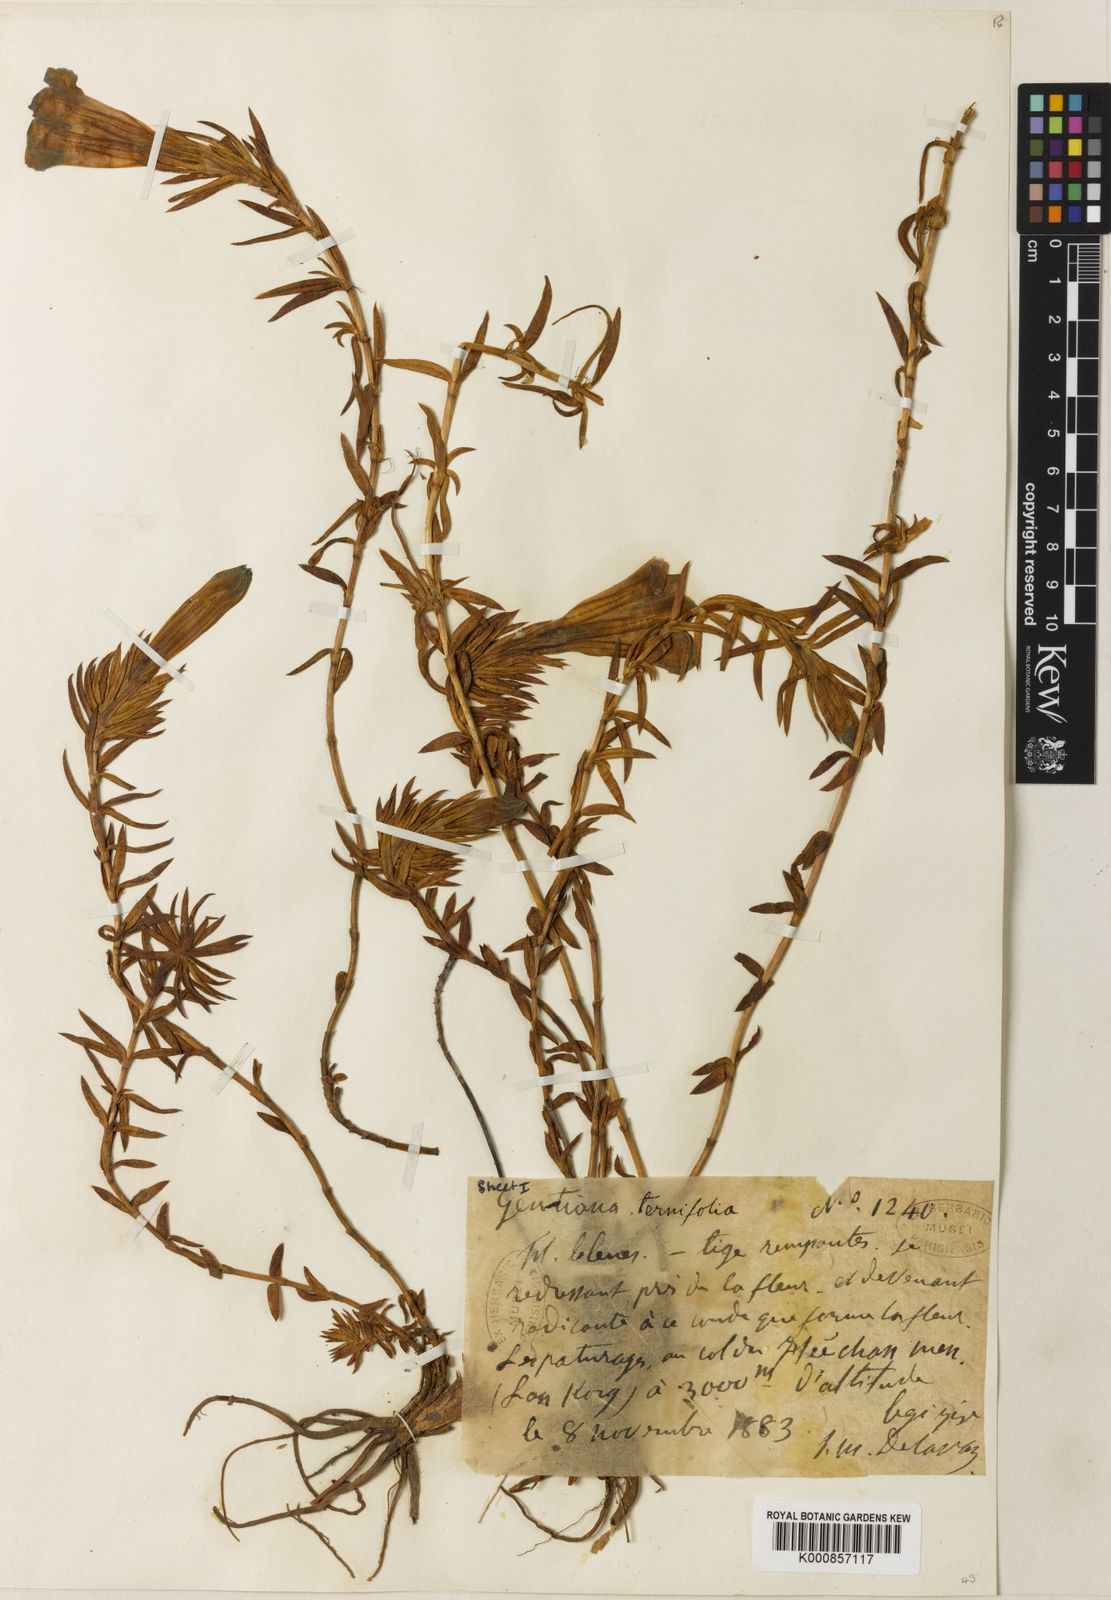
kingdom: Plantae
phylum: Tracheophyta
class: Magnoliopsida
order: Gentianales
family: Gentianaceae
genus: Gentiana
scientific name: Gentiana ternifolia
